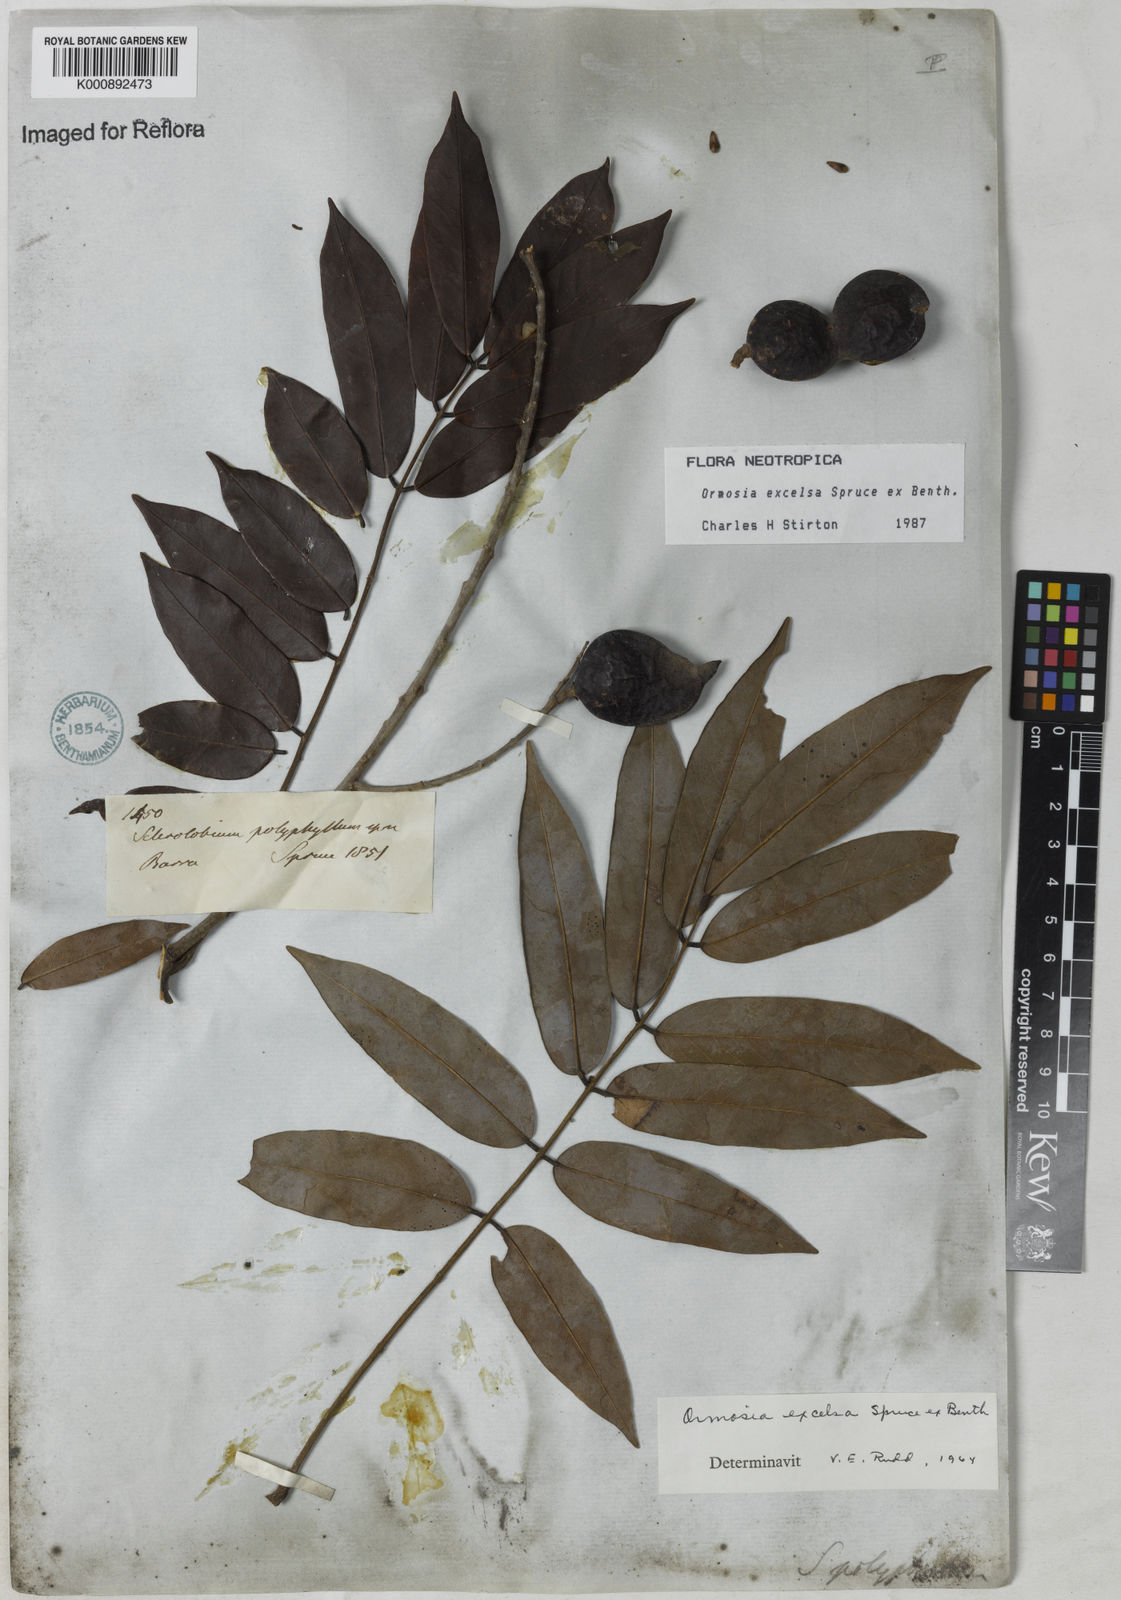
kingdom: Plantae
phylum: Tracheophyta
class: Magnoliopsida
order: Fabales
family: Fabaceae
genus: Ormosia
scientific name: Ormosia excelsa
